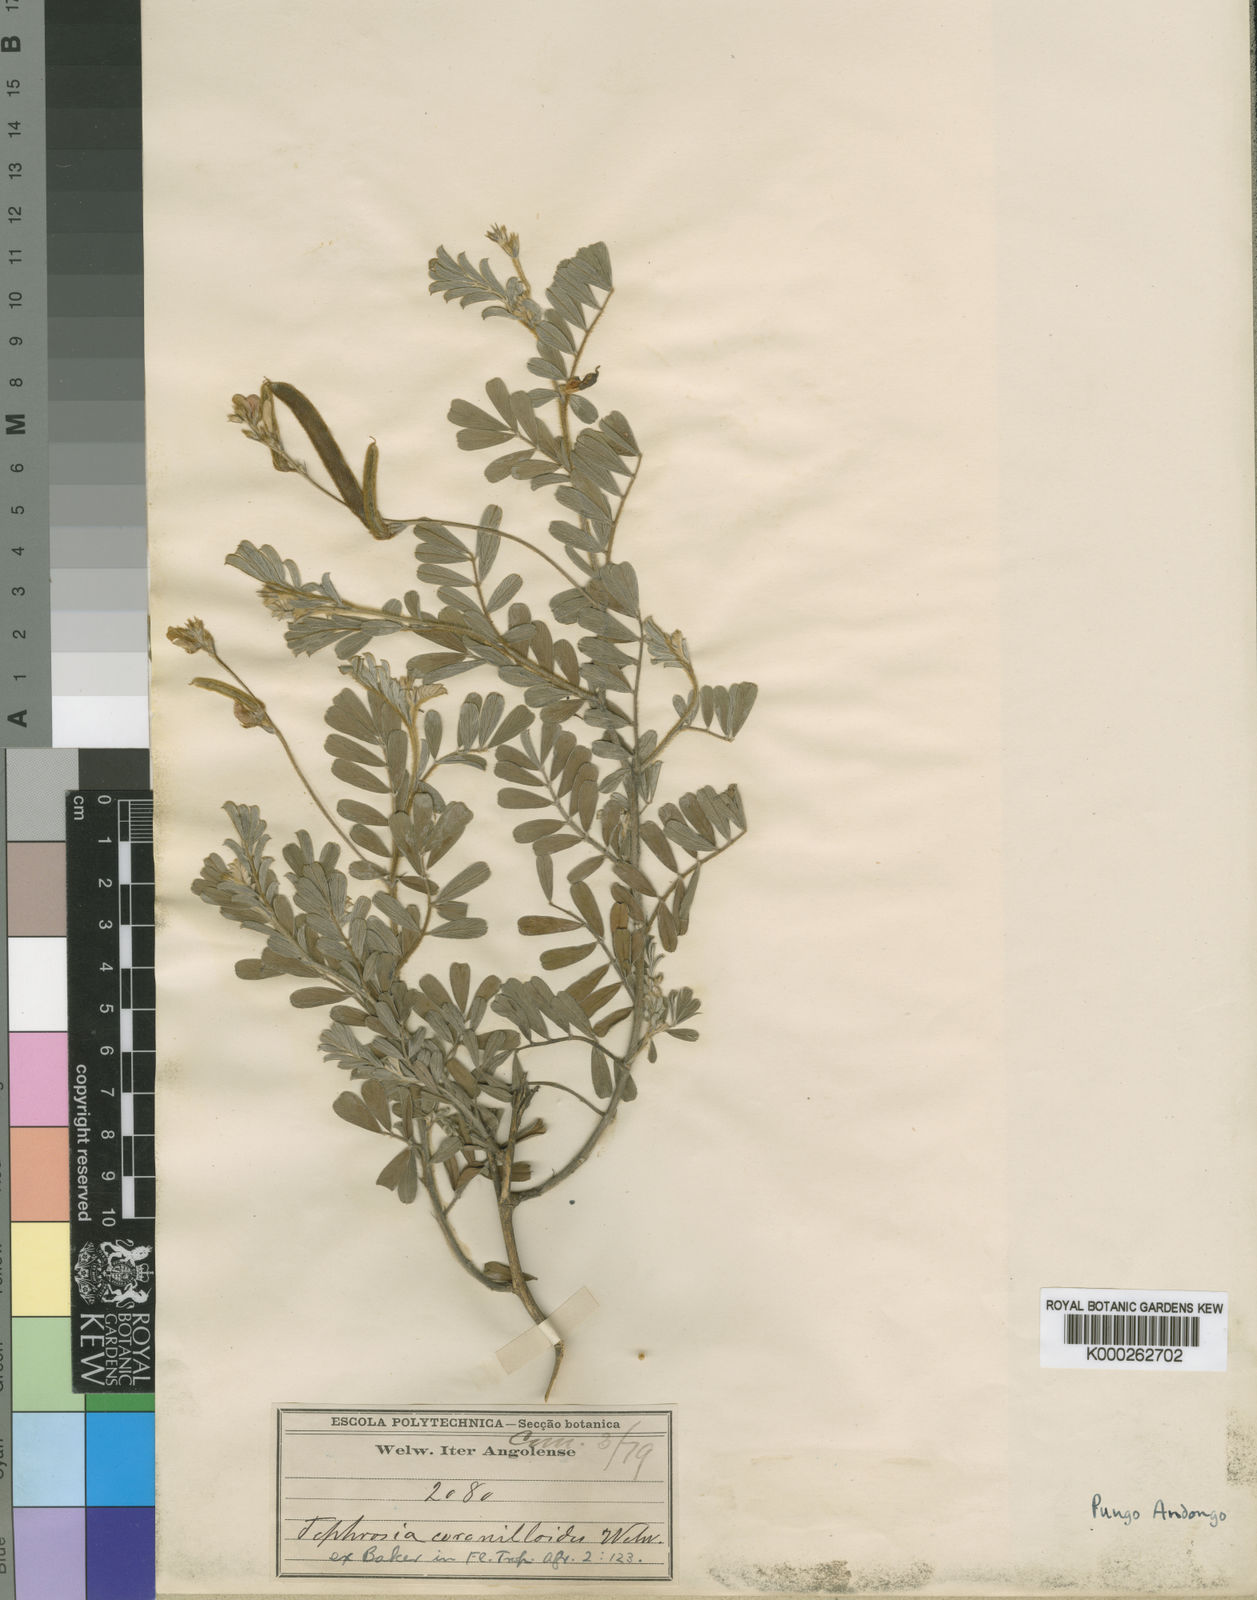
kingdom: Plantae
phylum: Tracheophyta
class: Magnoliopsida
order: Fabales
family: Fabaceae
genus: Tephrosia
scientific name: Tephrosia
